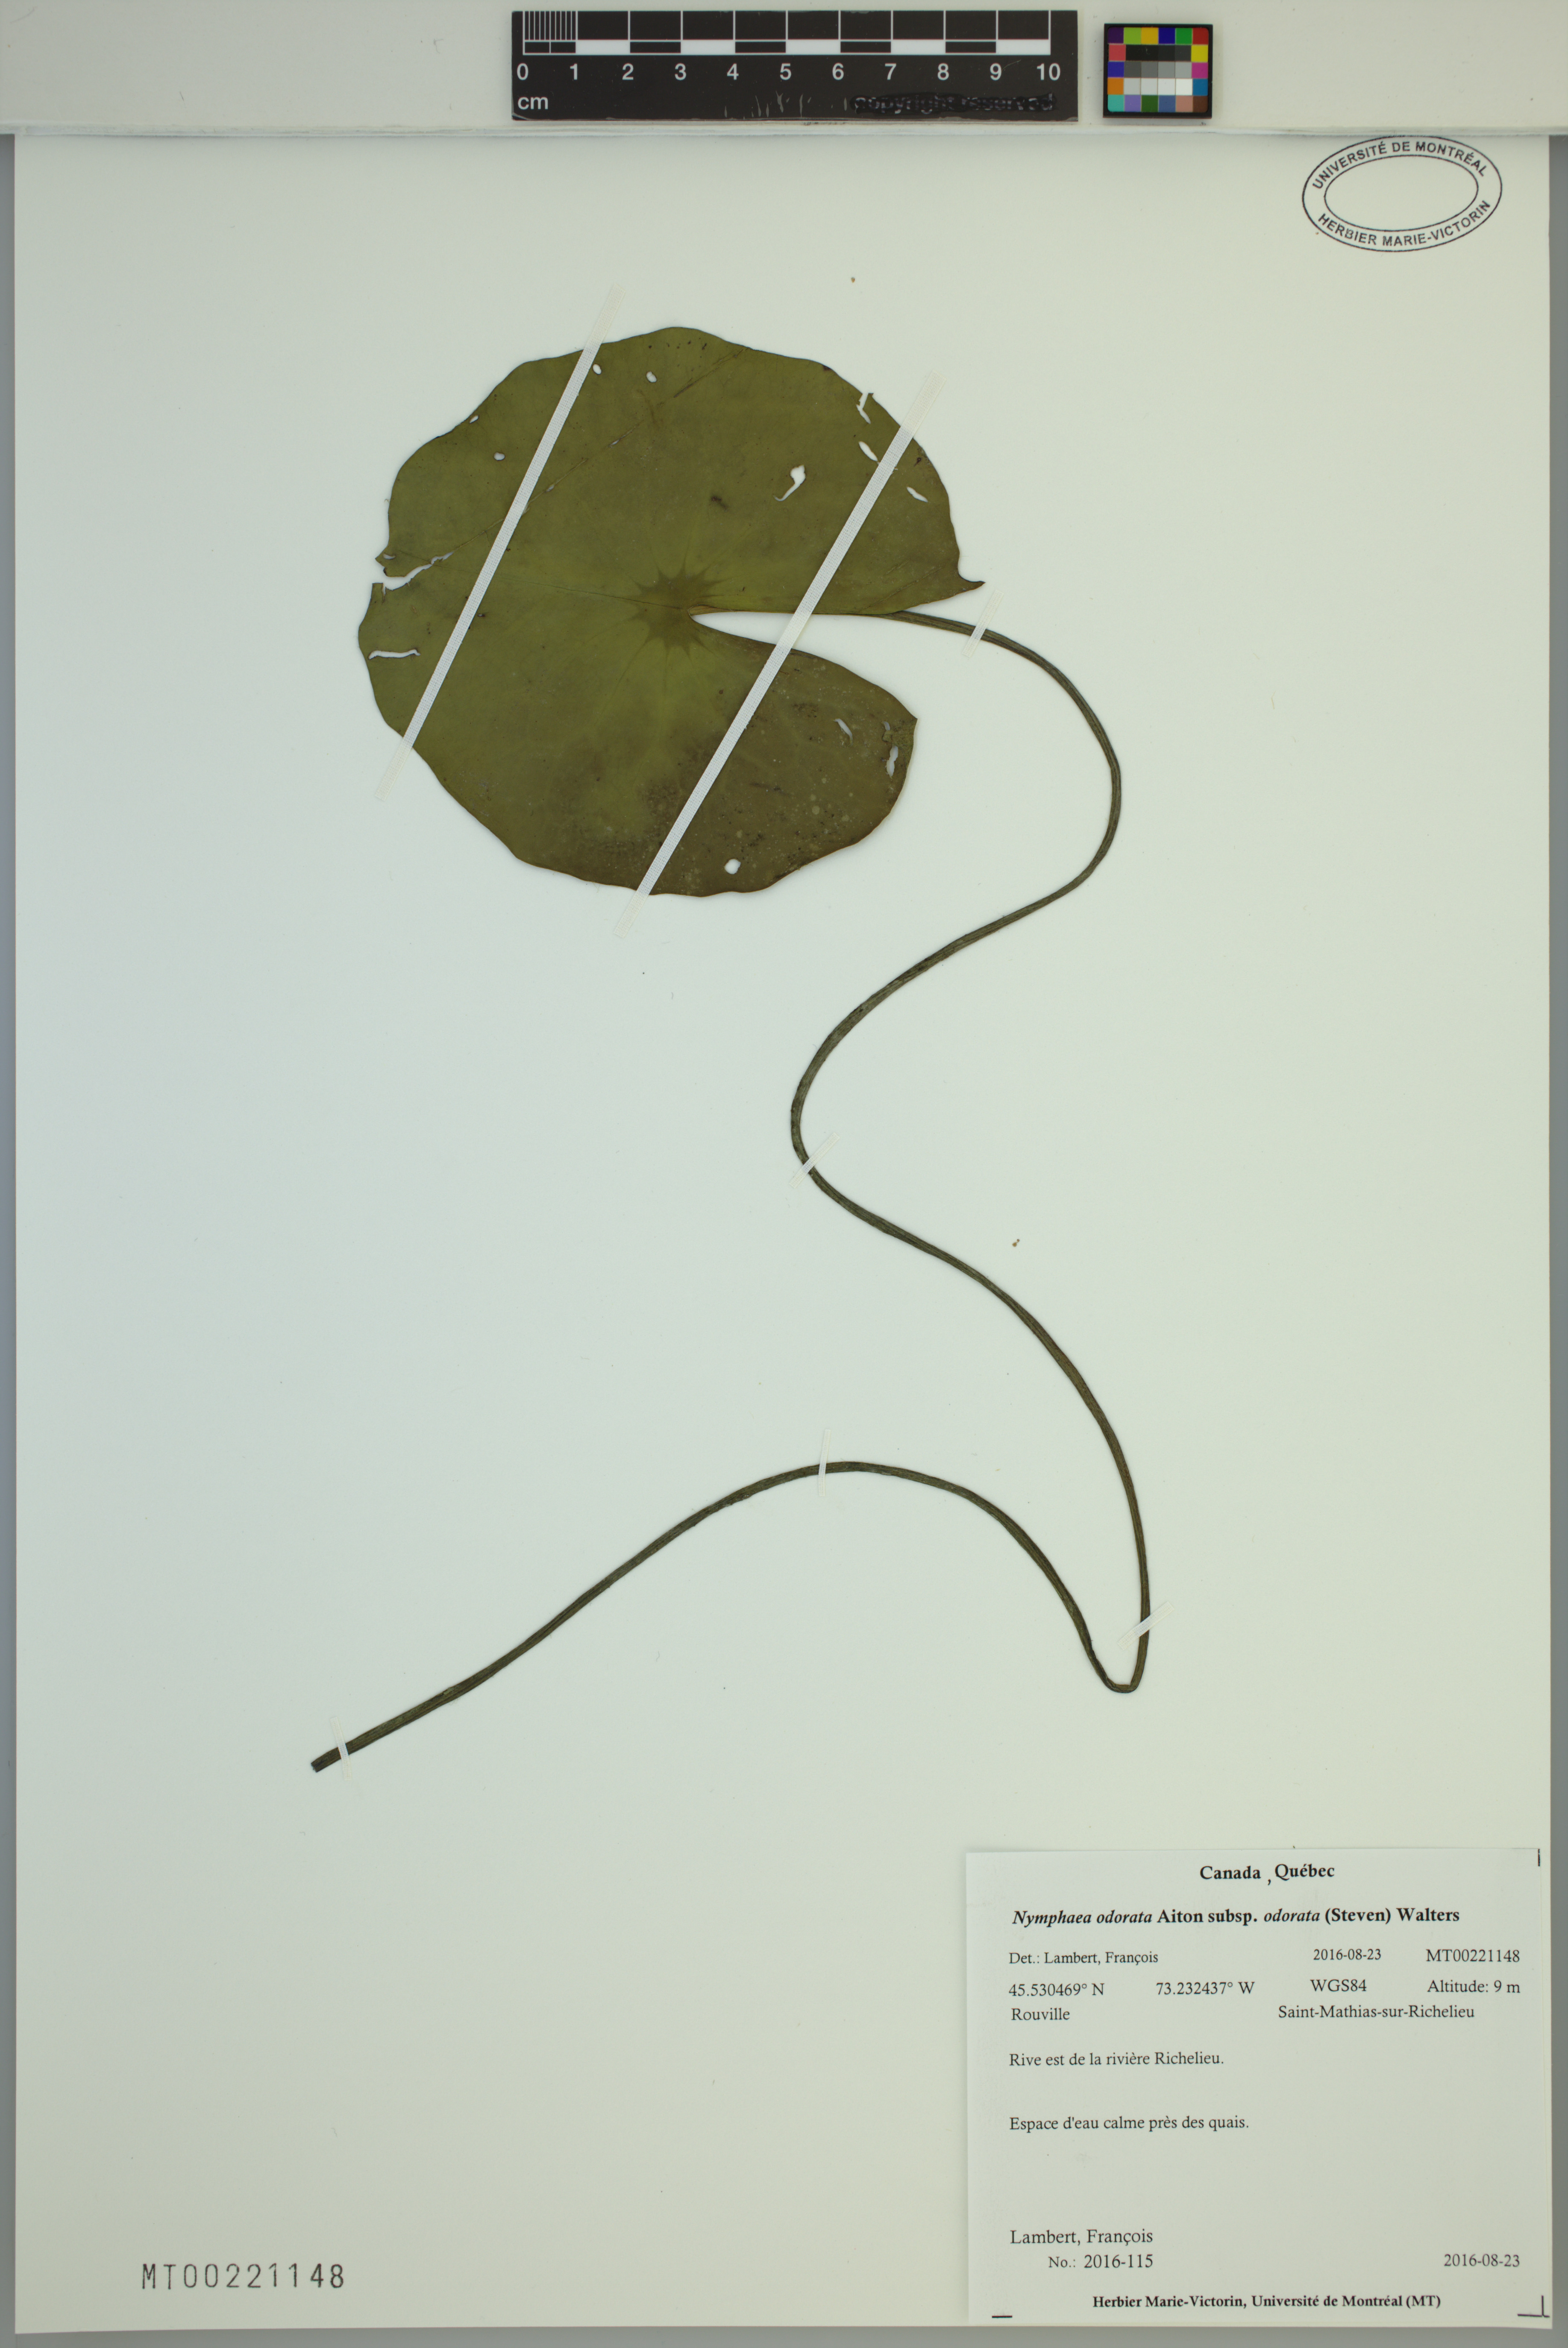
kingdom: Plantae
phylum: Tracheophyta
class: Magnoliopsida
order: Nymphaeales
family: Nymphaeaceae
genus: Nymphaea
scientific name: Nymphaea odorata
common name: Fragrant water-lily
